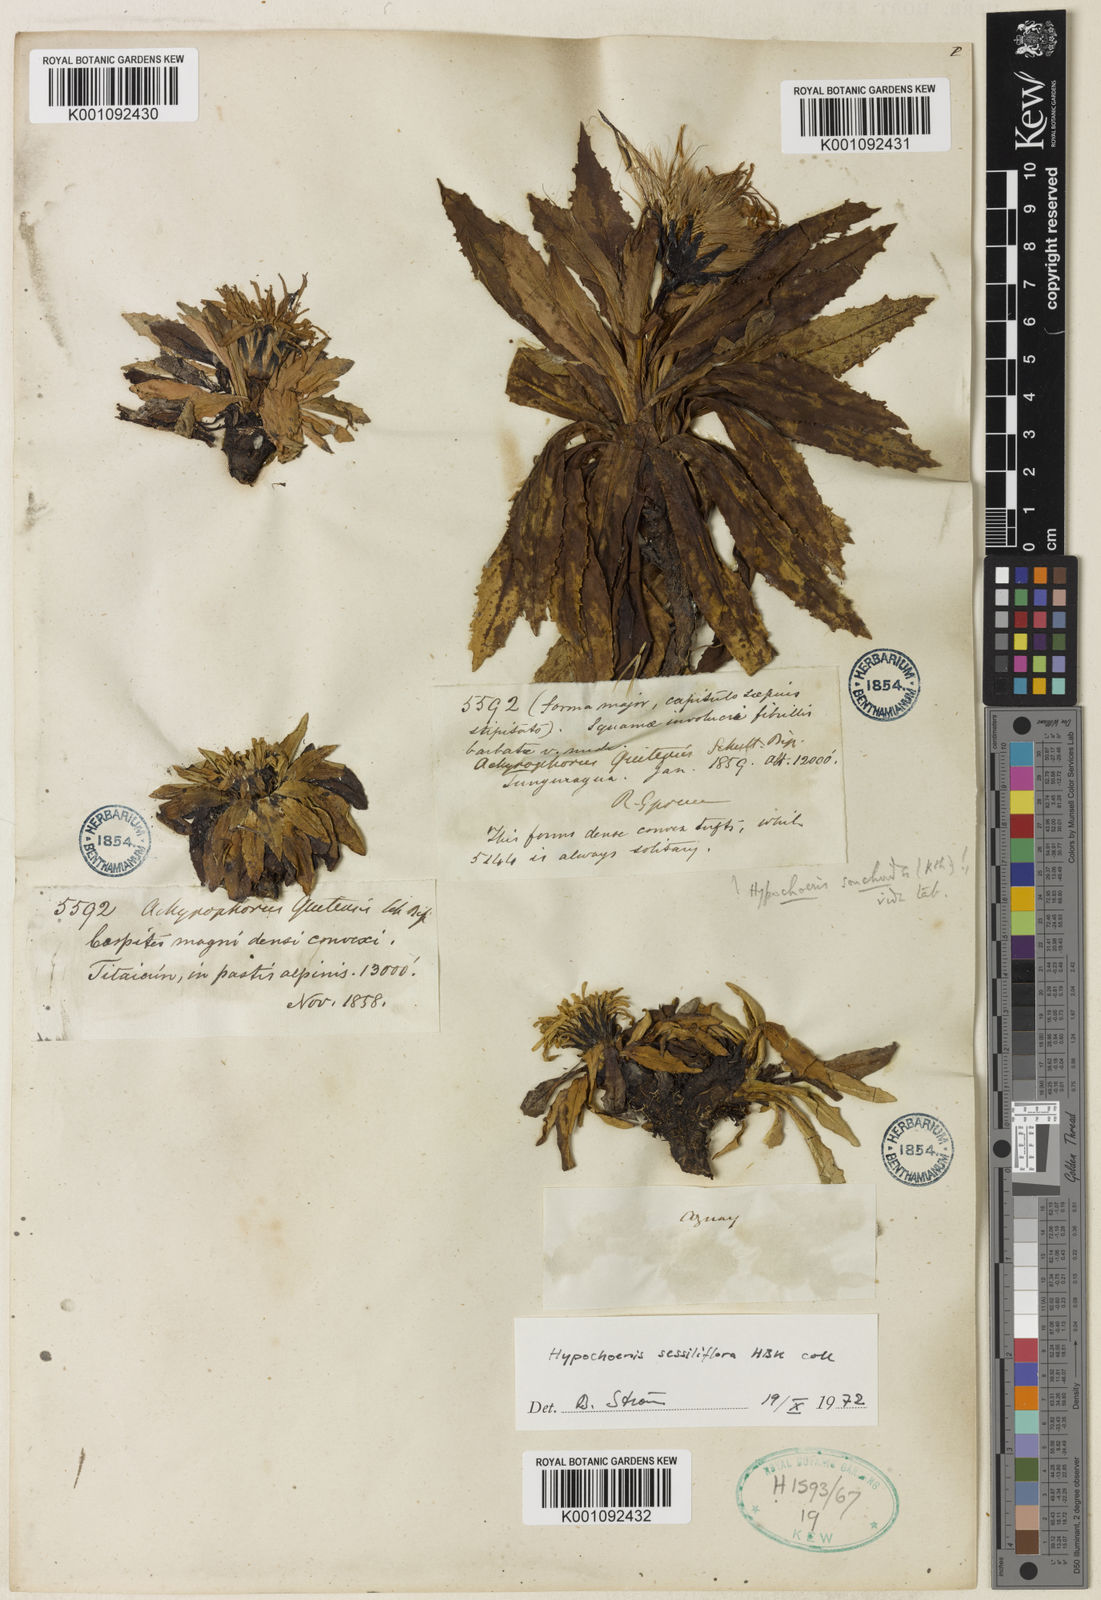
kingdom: Plantae
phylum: Tracheophyta
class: Magnoliopsida
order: Asterales
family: Asteraceae
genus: Hypochaeris
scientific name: Hypochaeris
